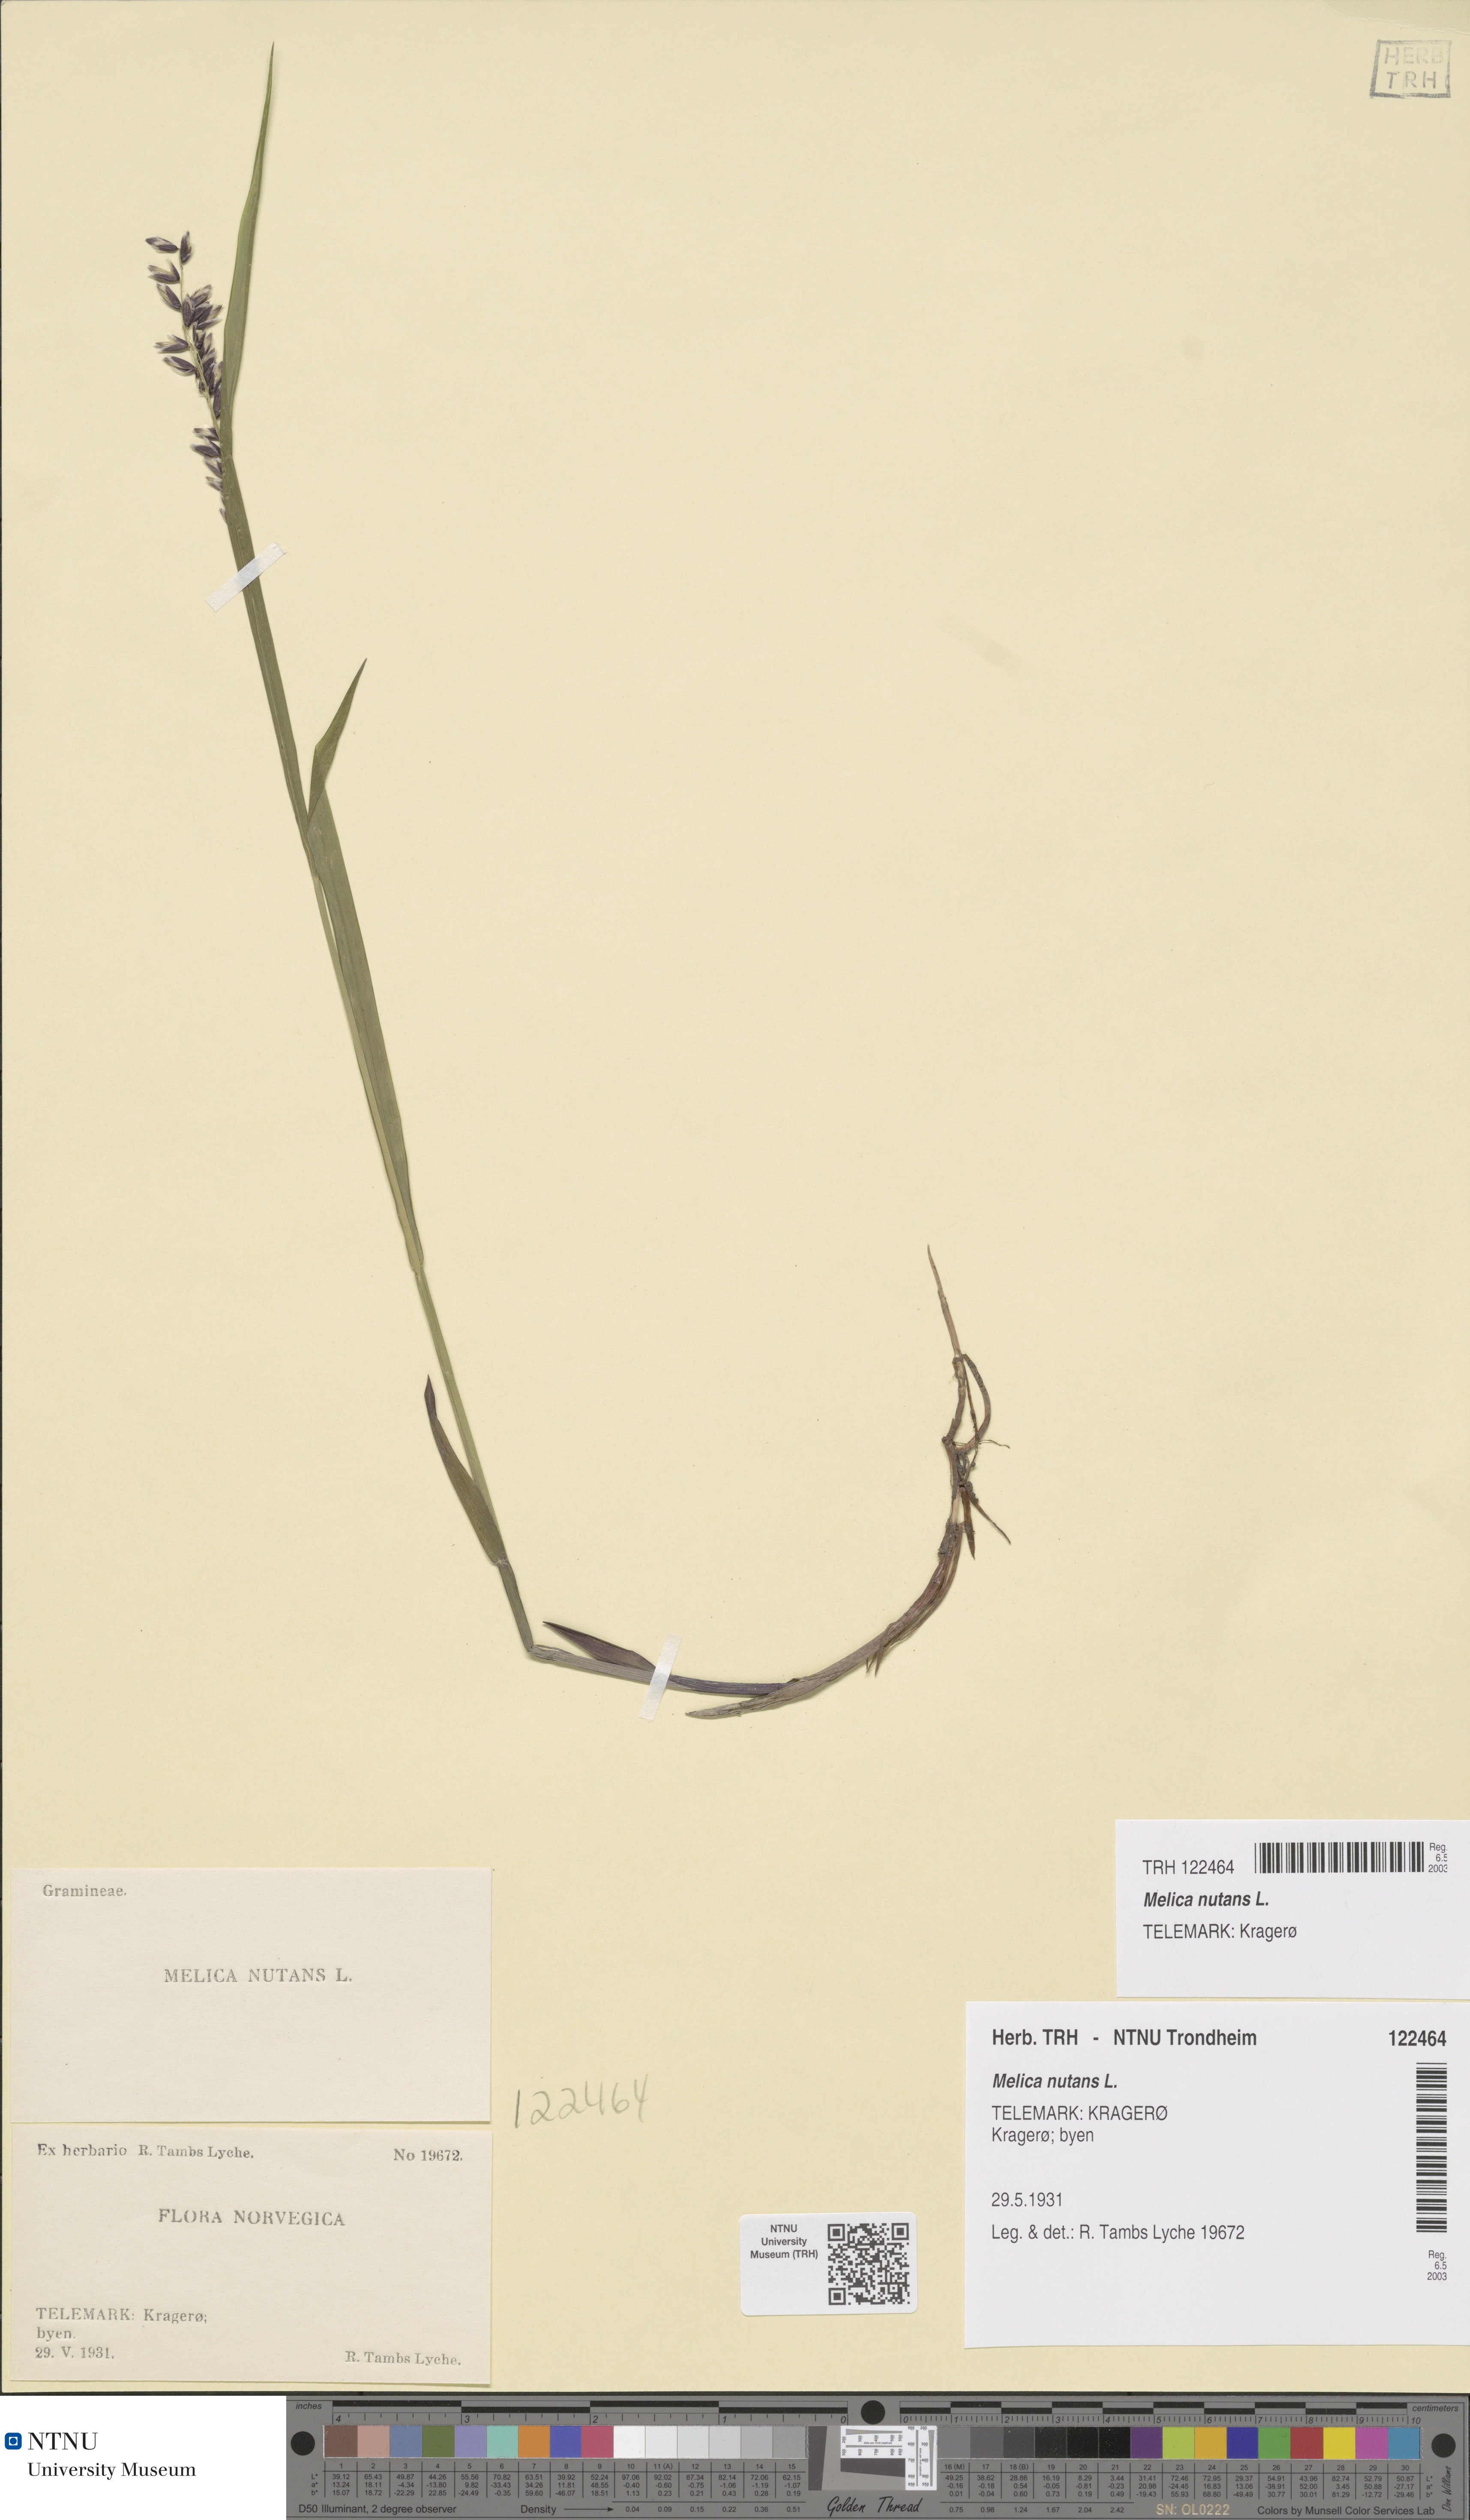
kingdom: Plantae
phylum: Tracheophyta
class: Liliopsida
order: Poales
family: Poaceae
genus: Melica
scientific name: Melica nutans
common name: Mountain melick
